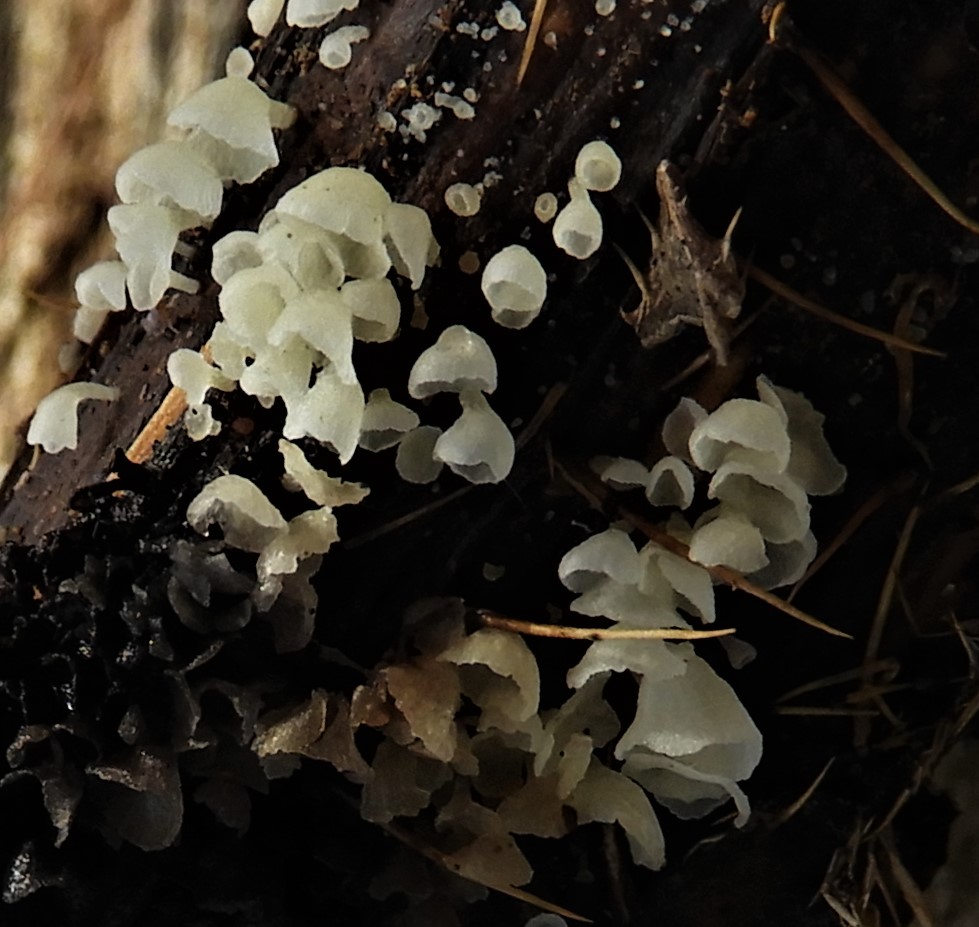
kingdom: Fungi
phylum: Basidiomycota
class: Agaricomycetes
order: Agaricales
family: Marasmiaceae
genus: Calyptella
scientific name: Calyptella capula
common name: hvidlig nældehue
